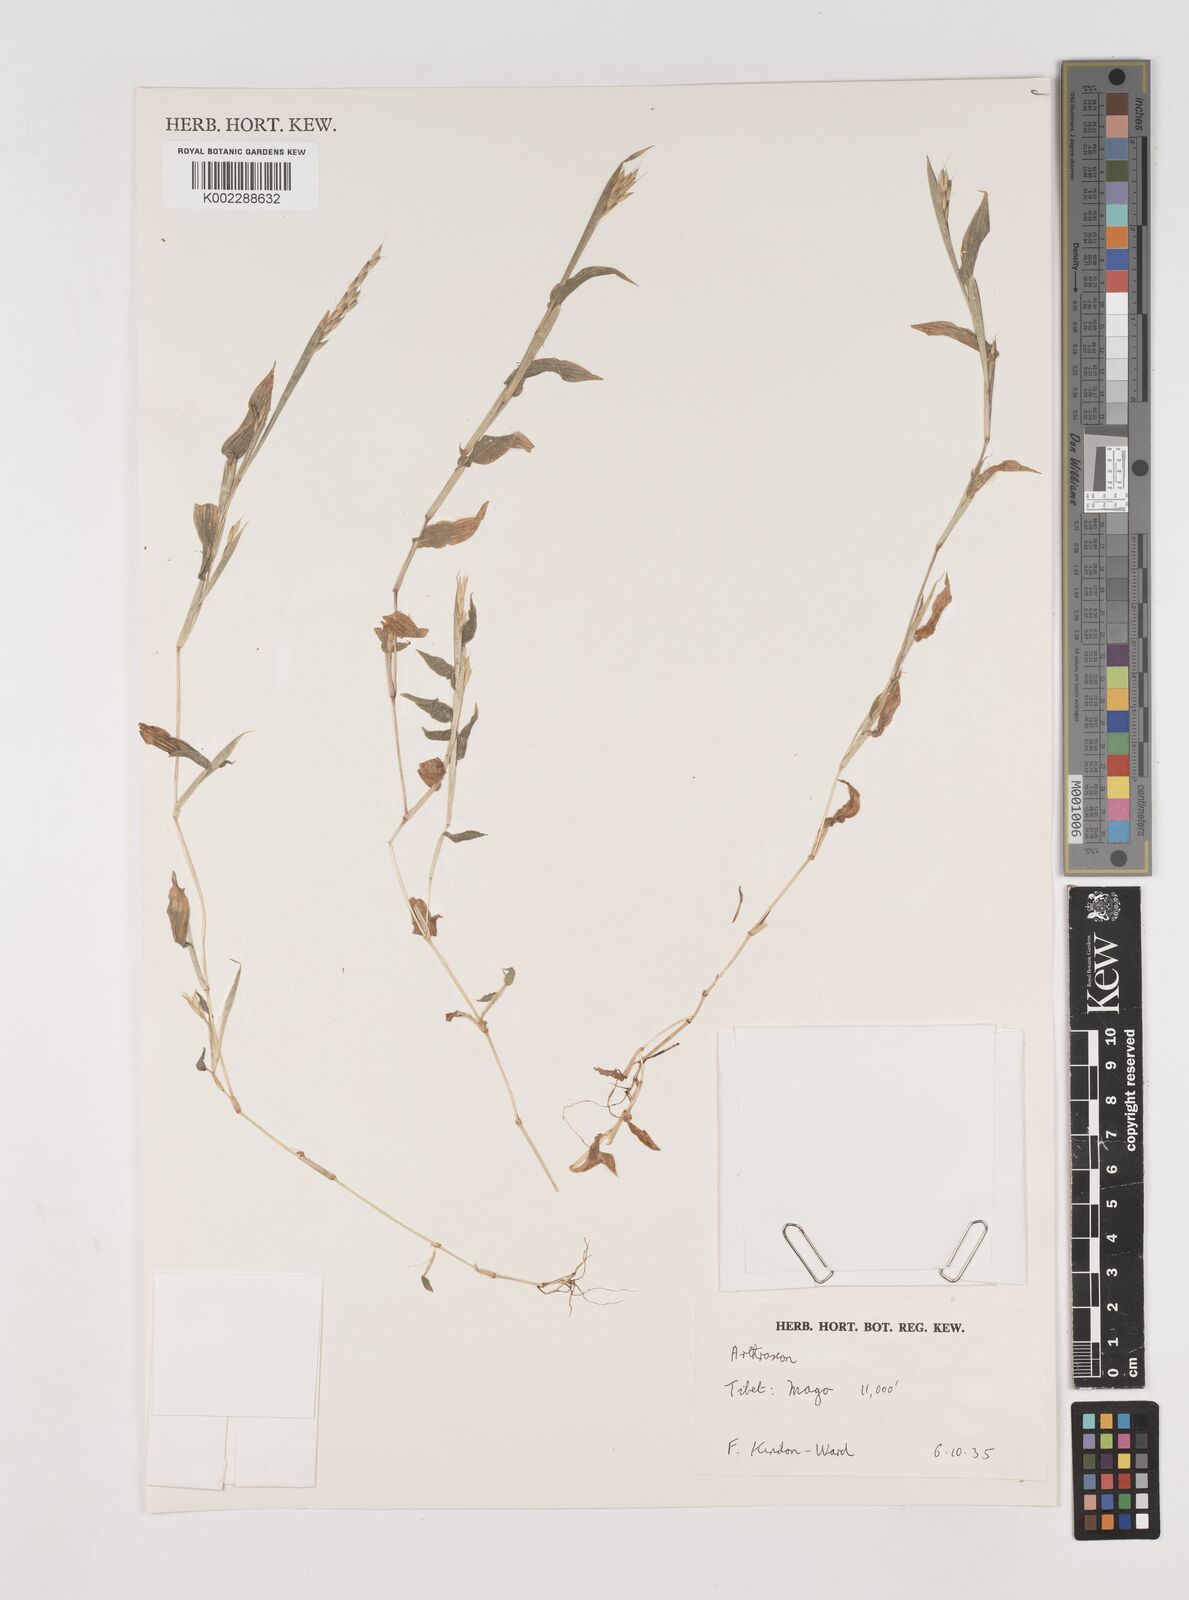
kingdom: Plantae
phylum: Tracheophyta
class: Liliopsida
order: Poales
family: Poaceae
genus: Arthraxon
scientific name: Arthraxon
